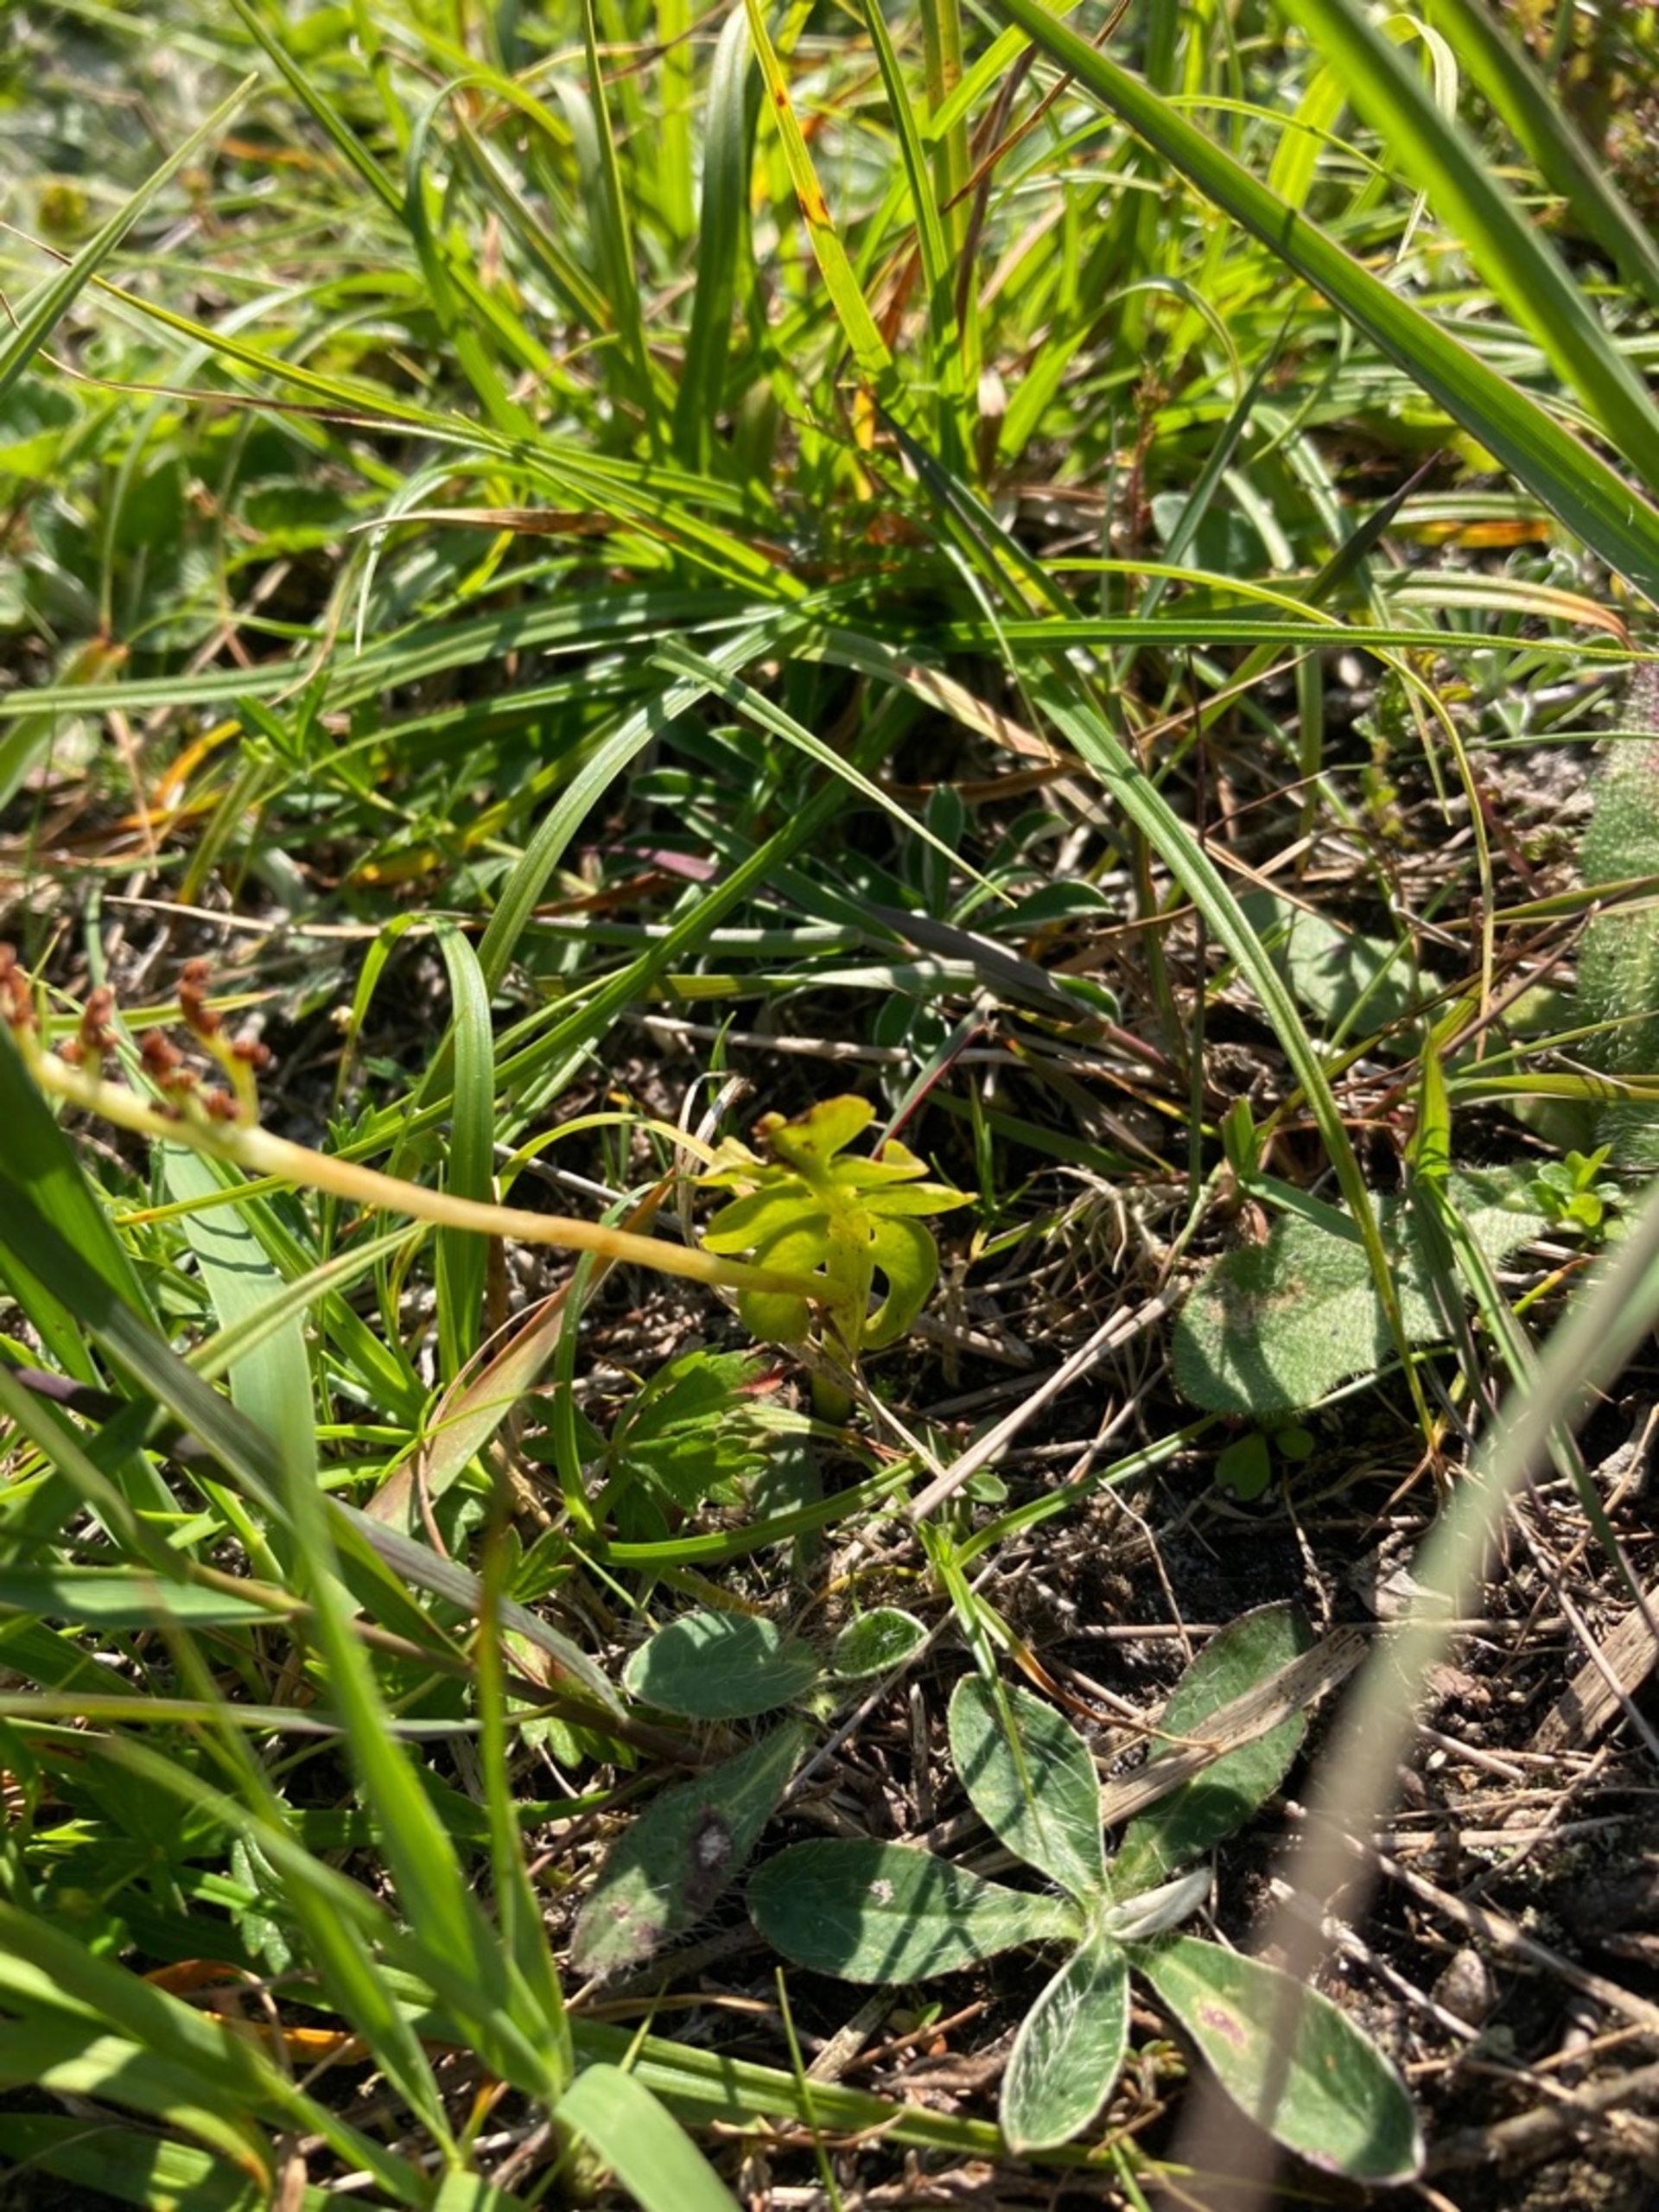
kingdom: Plantae
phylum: Tracheophyta
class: Polypodiopsida
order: Ophioglossales
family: Ophioglossaceae
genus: Botrychium
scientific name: Botrychium lunaria
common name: Almindelig månerude
